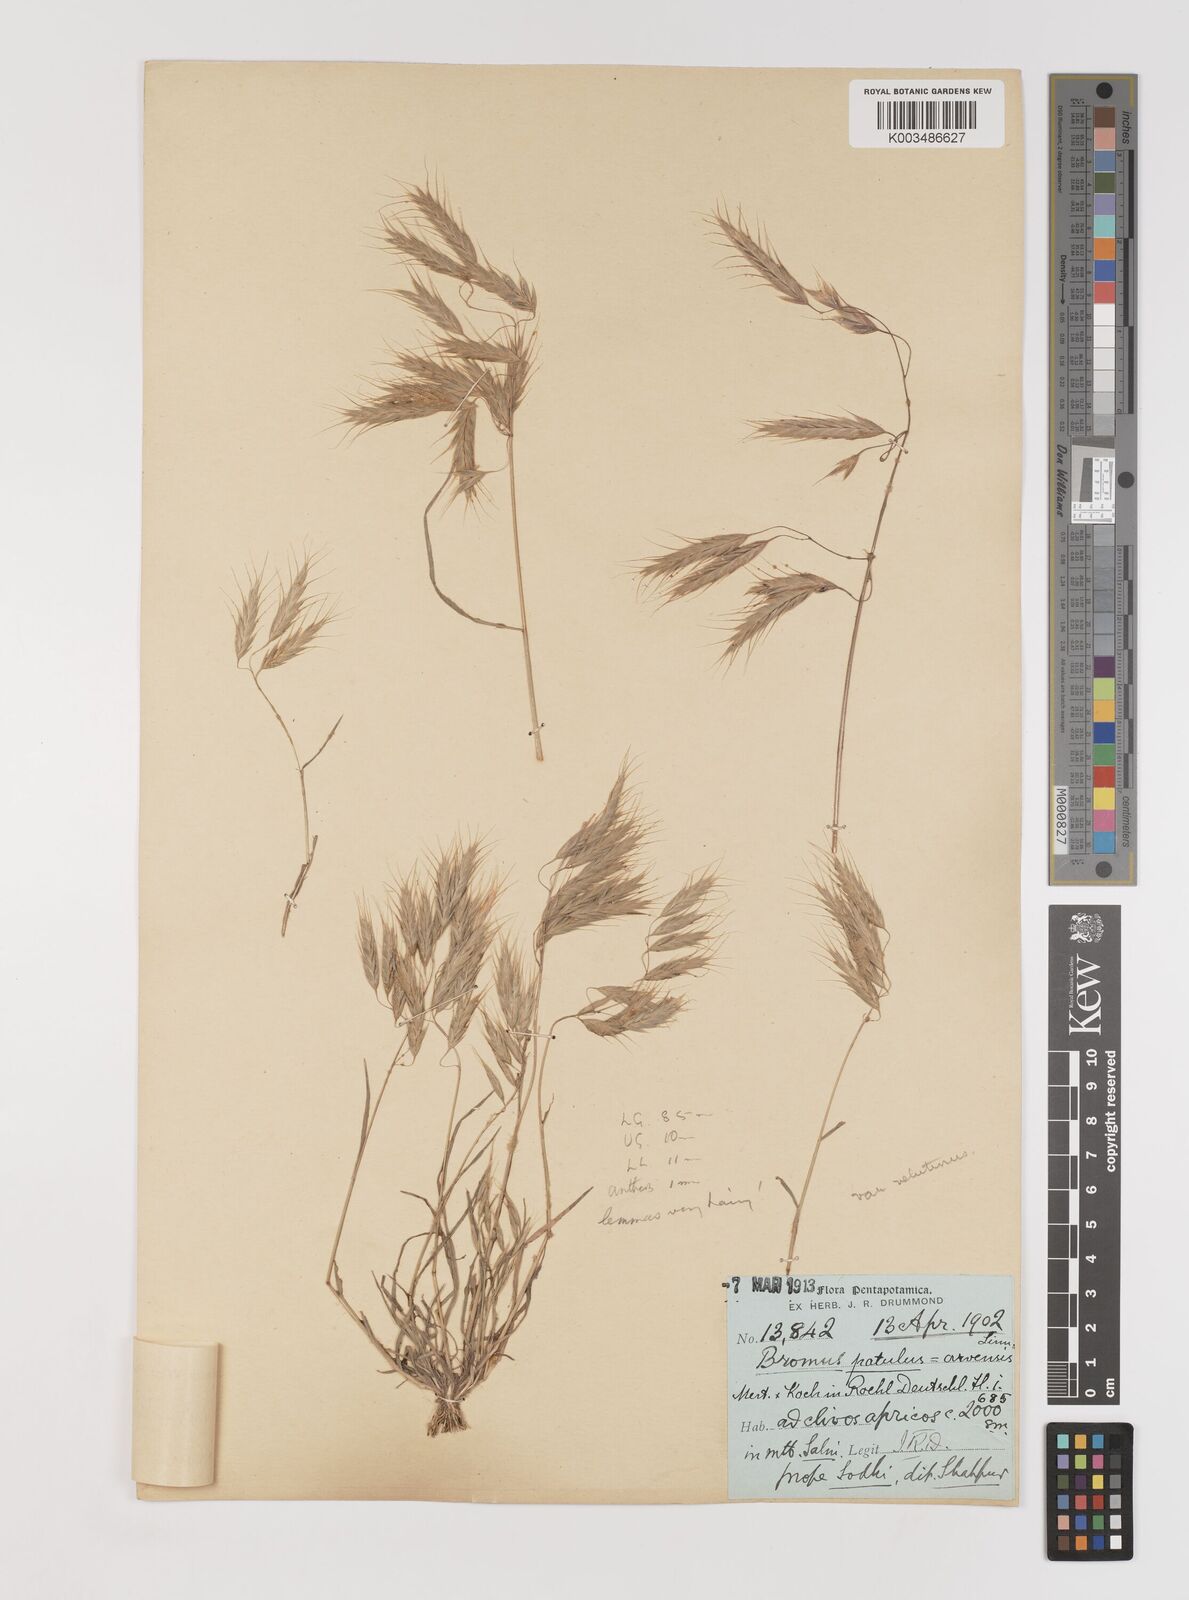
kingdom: Plantae
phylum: Tracheophyta
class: Liliopsida
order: Poales
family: Poaceae
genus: Bromus
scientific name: Bromus pectinatus
